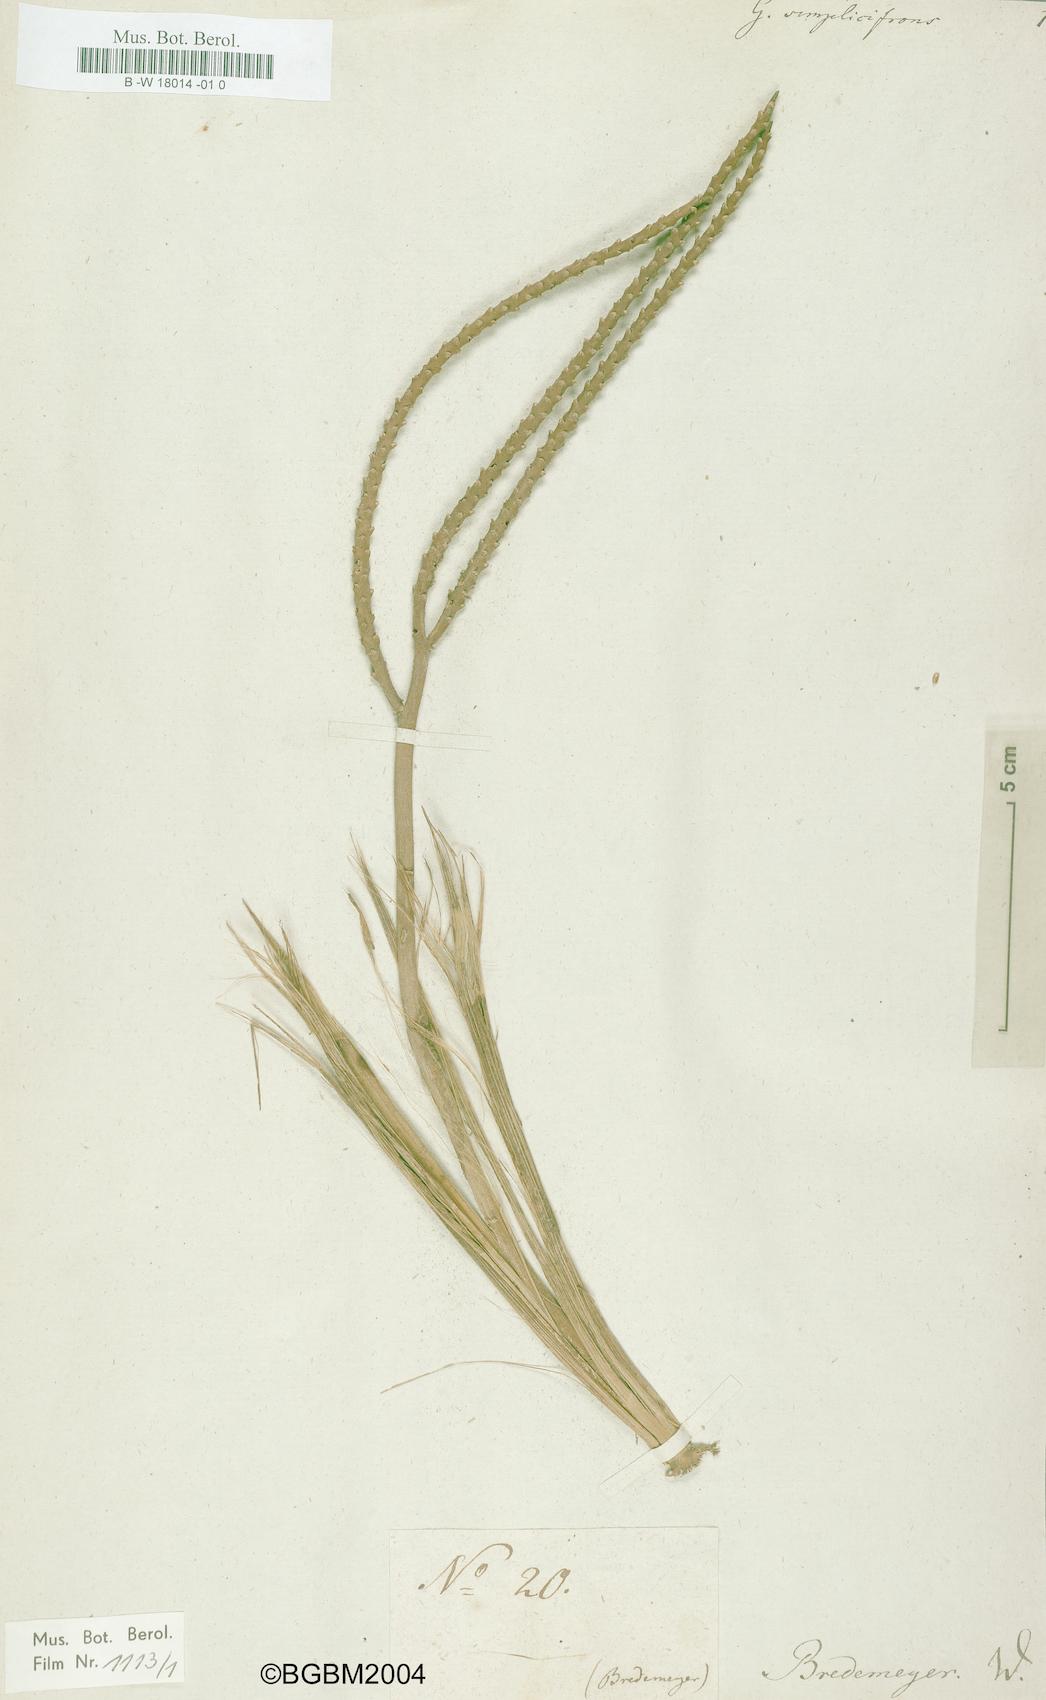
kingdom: Plantae
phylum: Tracheophyta
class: Liliopsida
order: Arecales
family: Arecaceae
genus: Geonoma
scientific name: Geonoma simplicifrons
